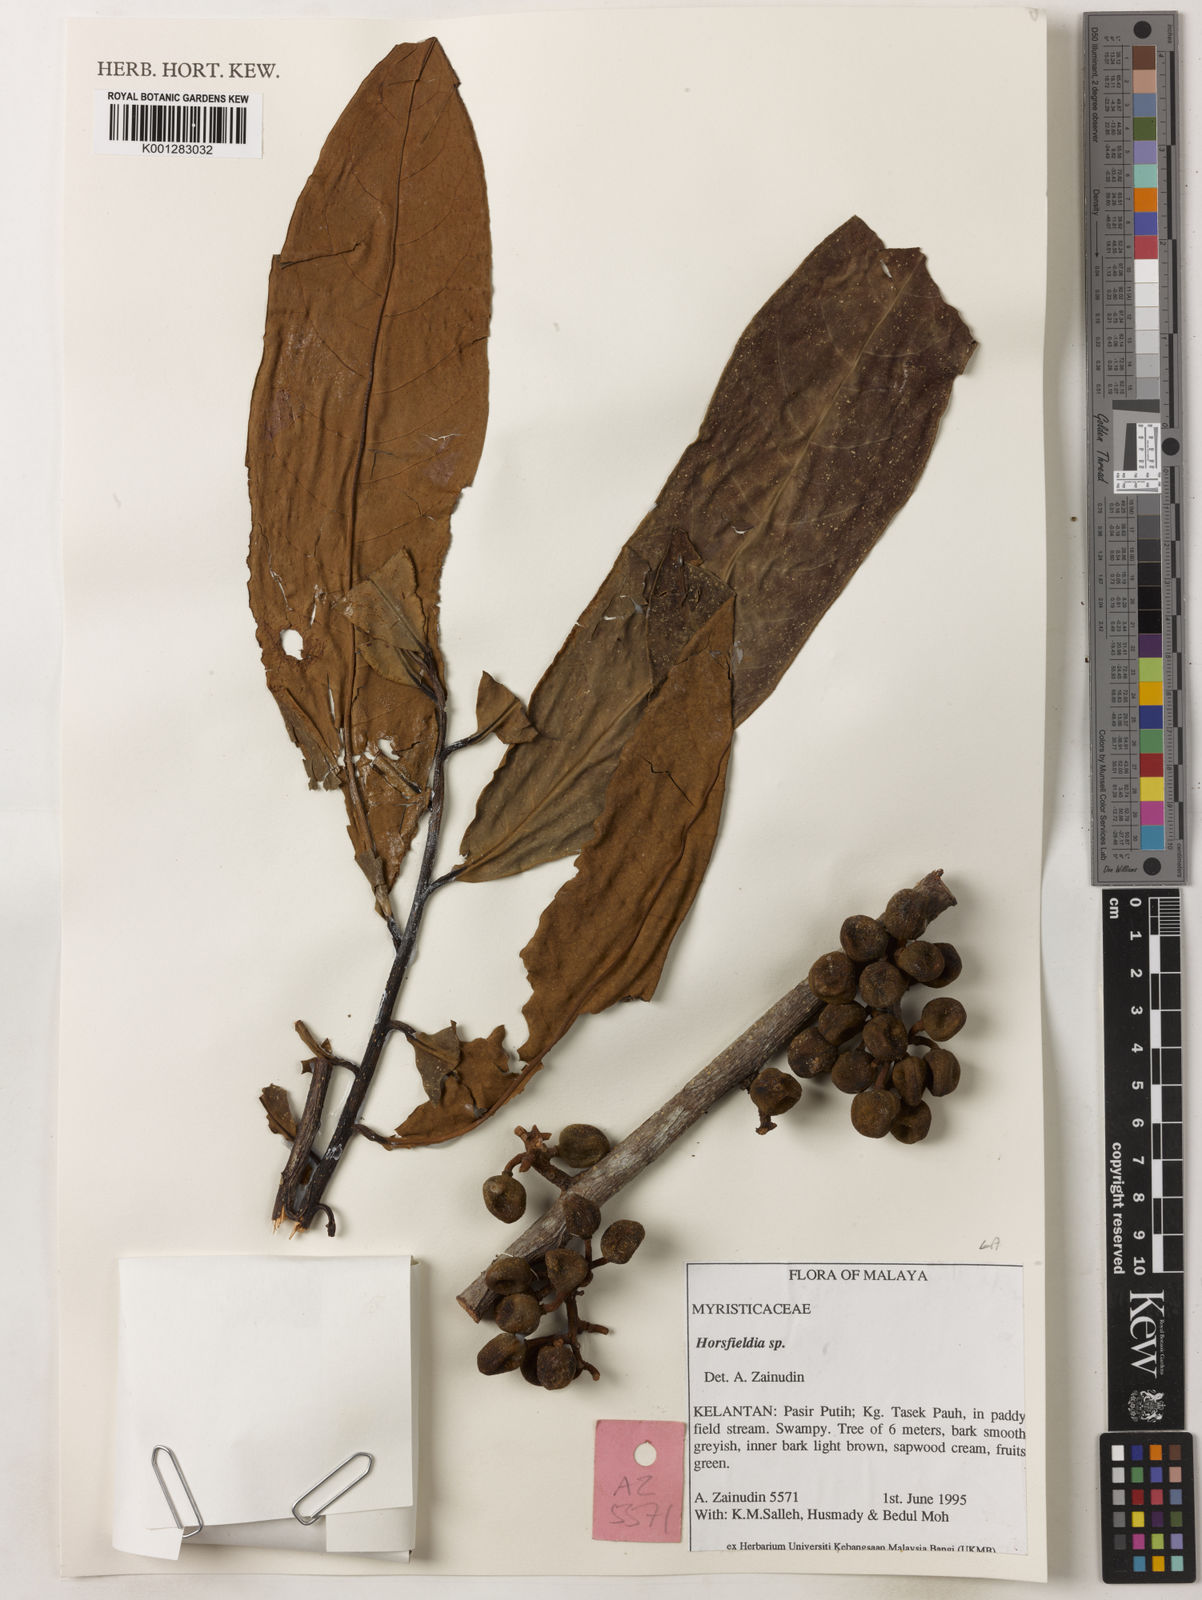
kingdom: Plantae
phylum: Tracheophyta
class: Magnoliopsida
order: Magnoliales
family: Myristicaceae
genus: Horsfieldia
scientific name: Horsfieldia
